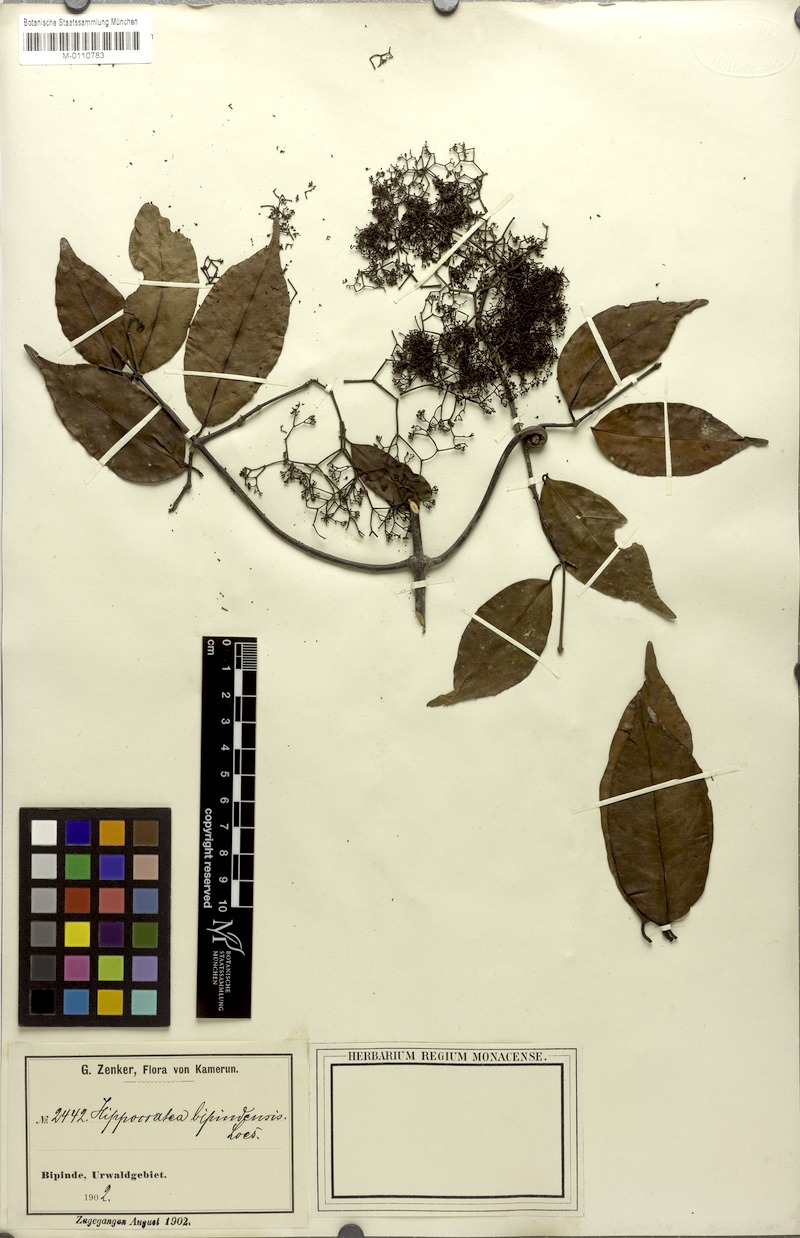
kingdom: Plantae
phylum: Tracheophyta
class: Magnoliopsida
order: Celastrales
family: Celastraceae
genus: Elachyptera
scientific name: Elachyptera bipindensis
